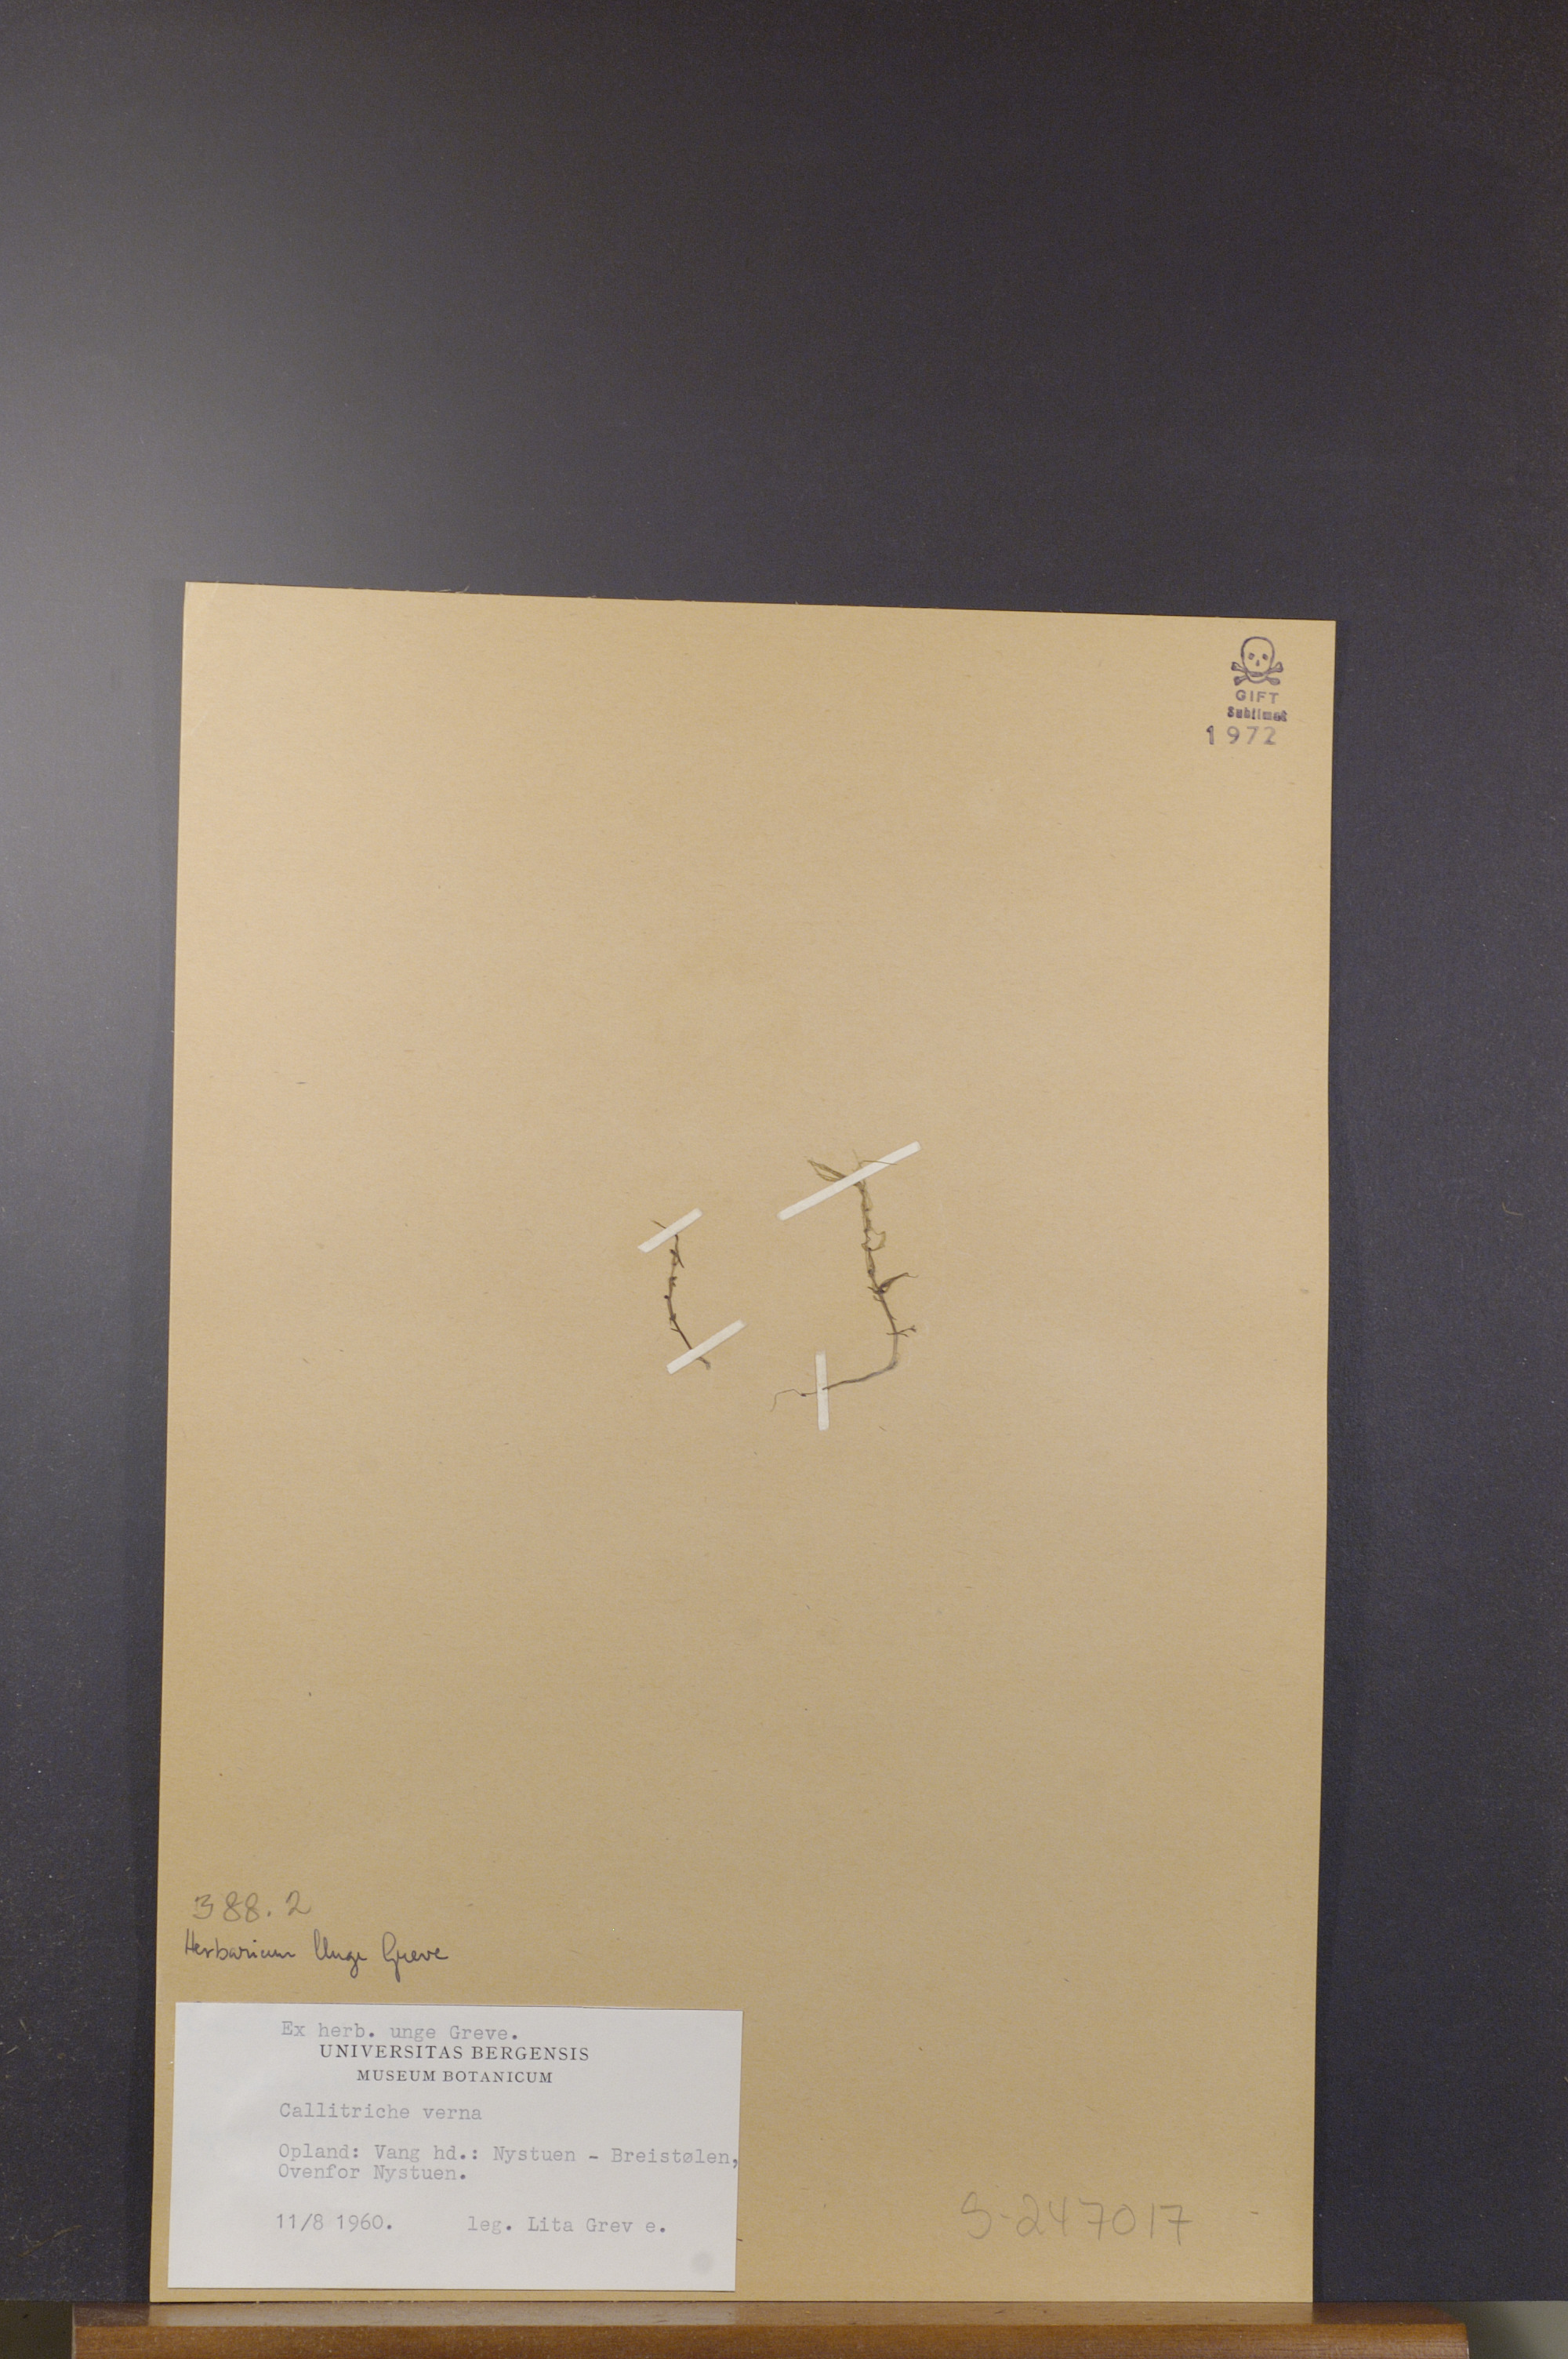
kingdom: Plantae
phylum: Tracheophyta
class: Magnoliopsida
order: Lamiales
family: Plantaginaceae
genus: Callitriche
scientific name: Callitriche hamulata
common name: Intermediate water-starwort
